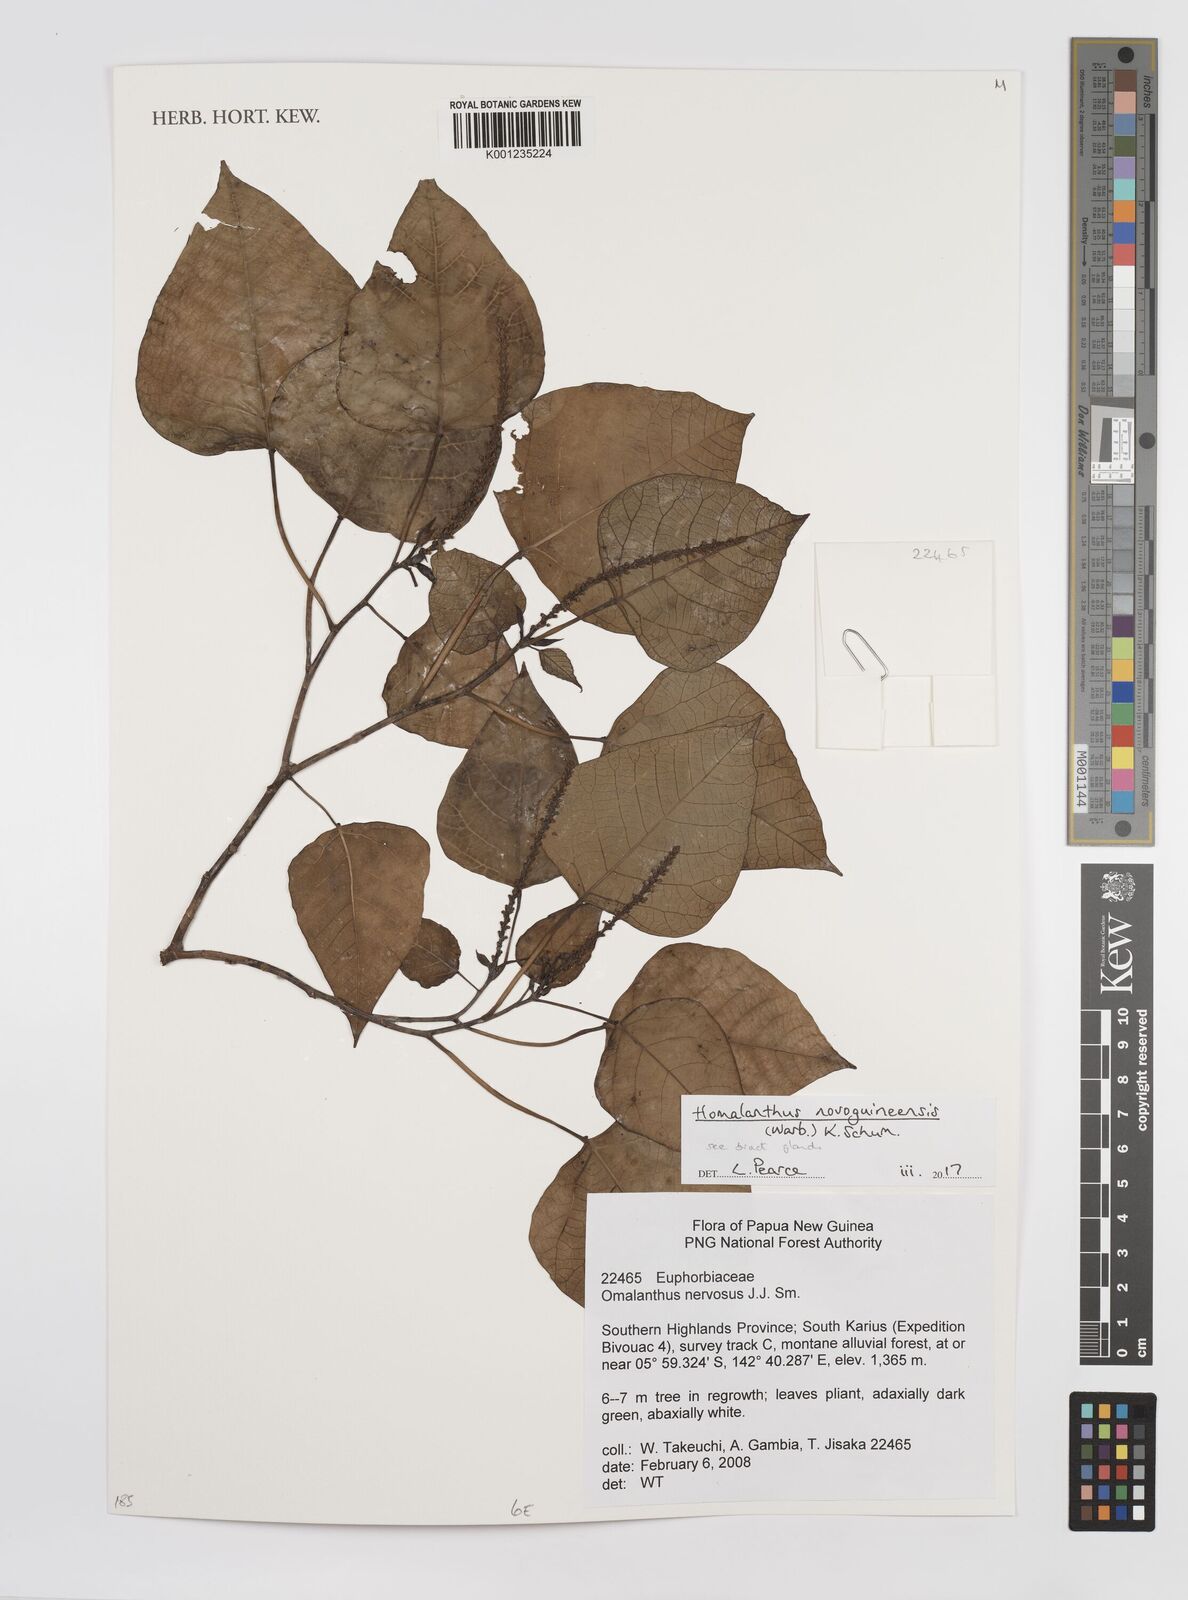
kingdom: Plantae
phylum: Tracheophyta
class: Magnoliopsida
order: Malpighiales
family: Euphorbiaceae
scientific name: Euphorbiaceae
